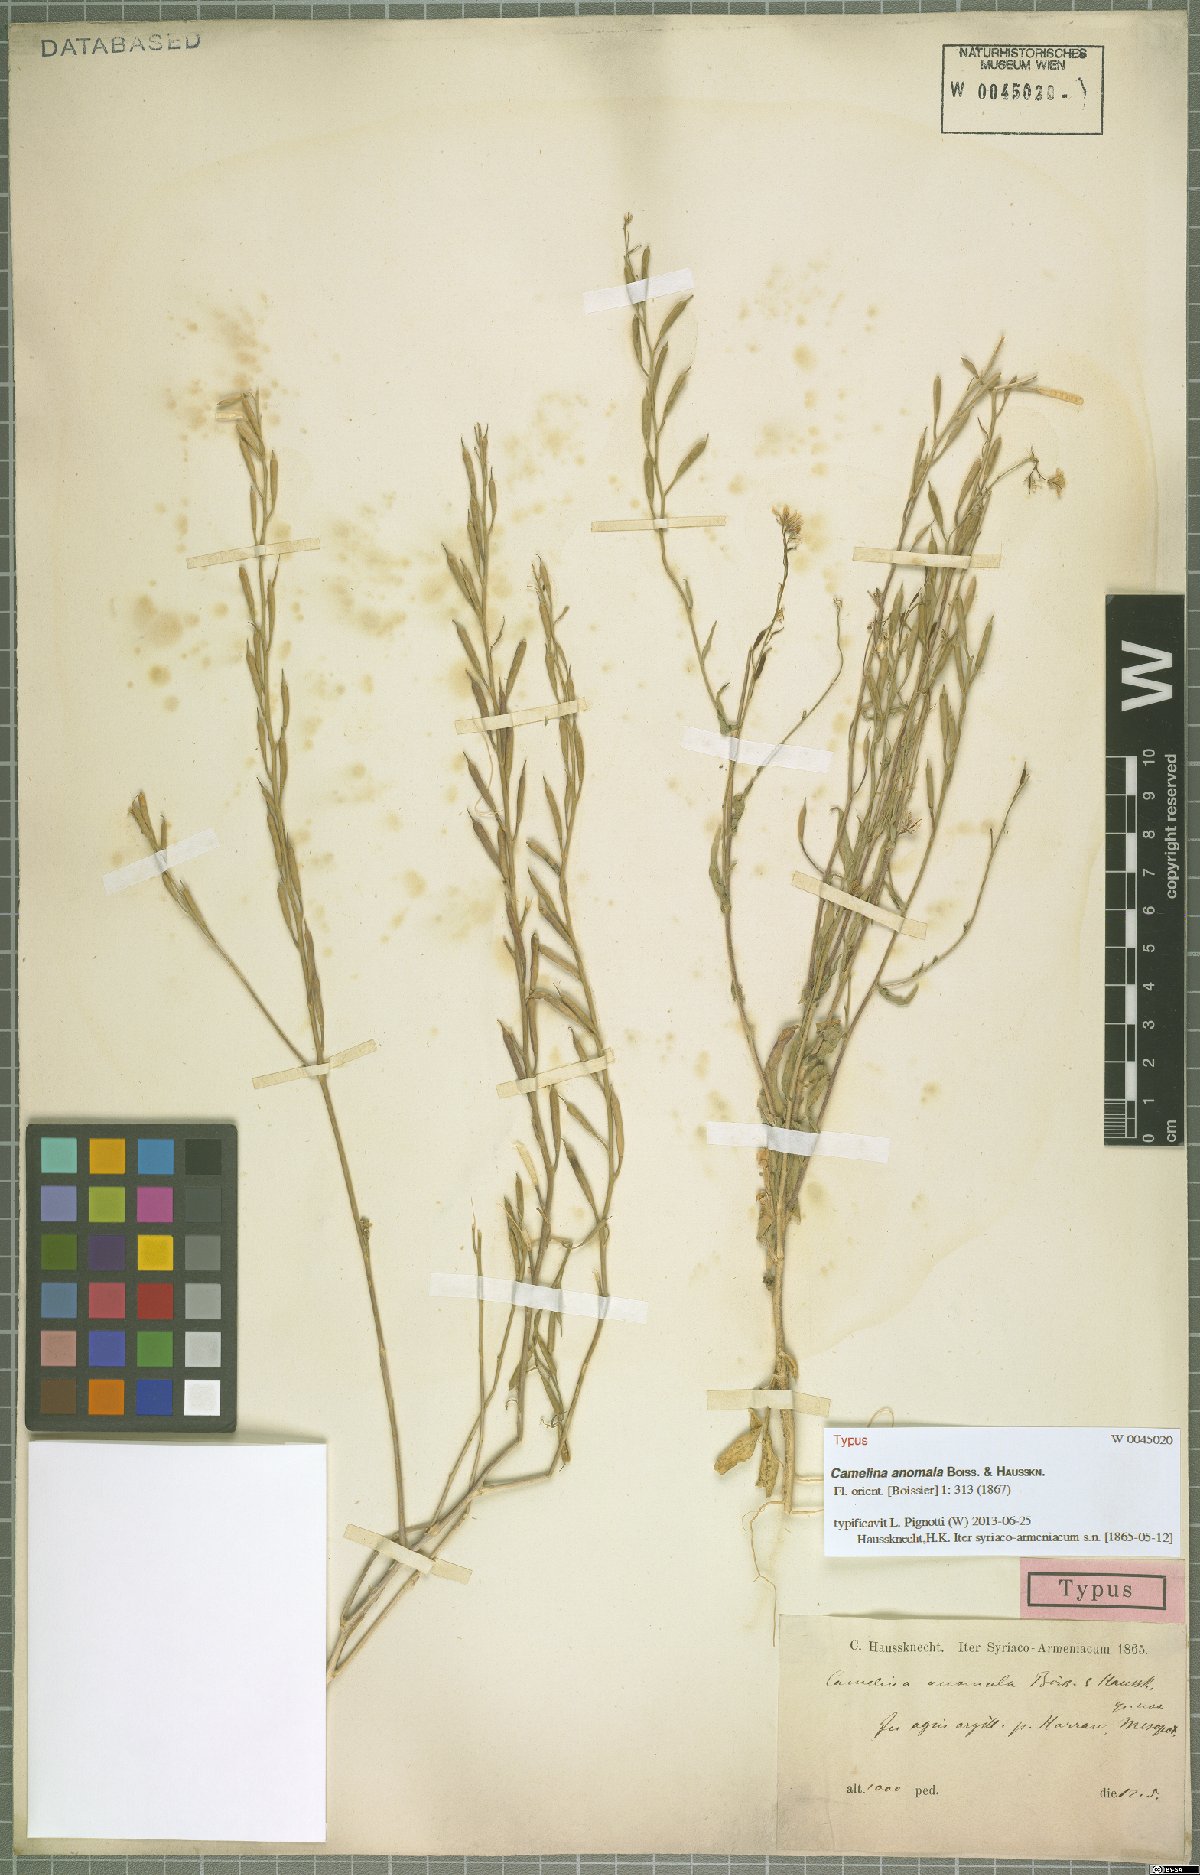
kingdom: Plantae
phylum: Tracheophyta
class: Magnoliopsida
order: Brassicales
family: Brassicaceae
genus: Camelina
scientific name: Camelina anomala
